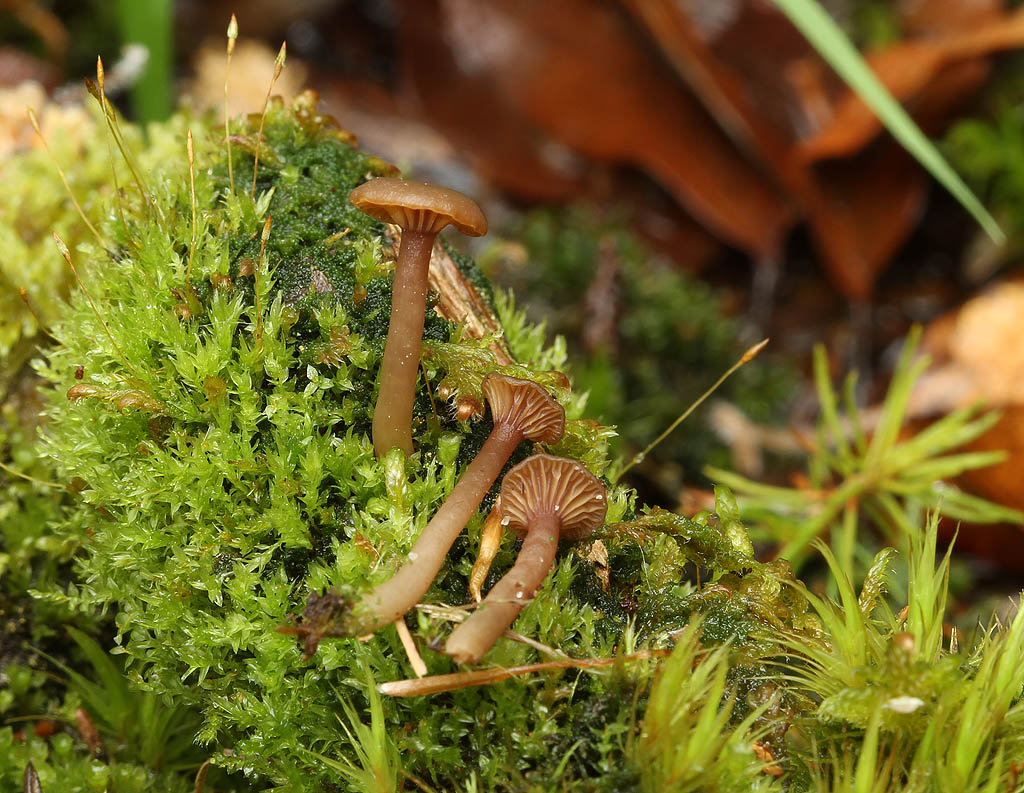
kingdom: Fungi
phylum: Basidiomycota
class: Agaricomycetes
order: Agaricales
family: Hygrophoraceae
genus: Lichenomphalia
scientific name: Lichenomphalia umbellifera
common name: tørve-lavhat
